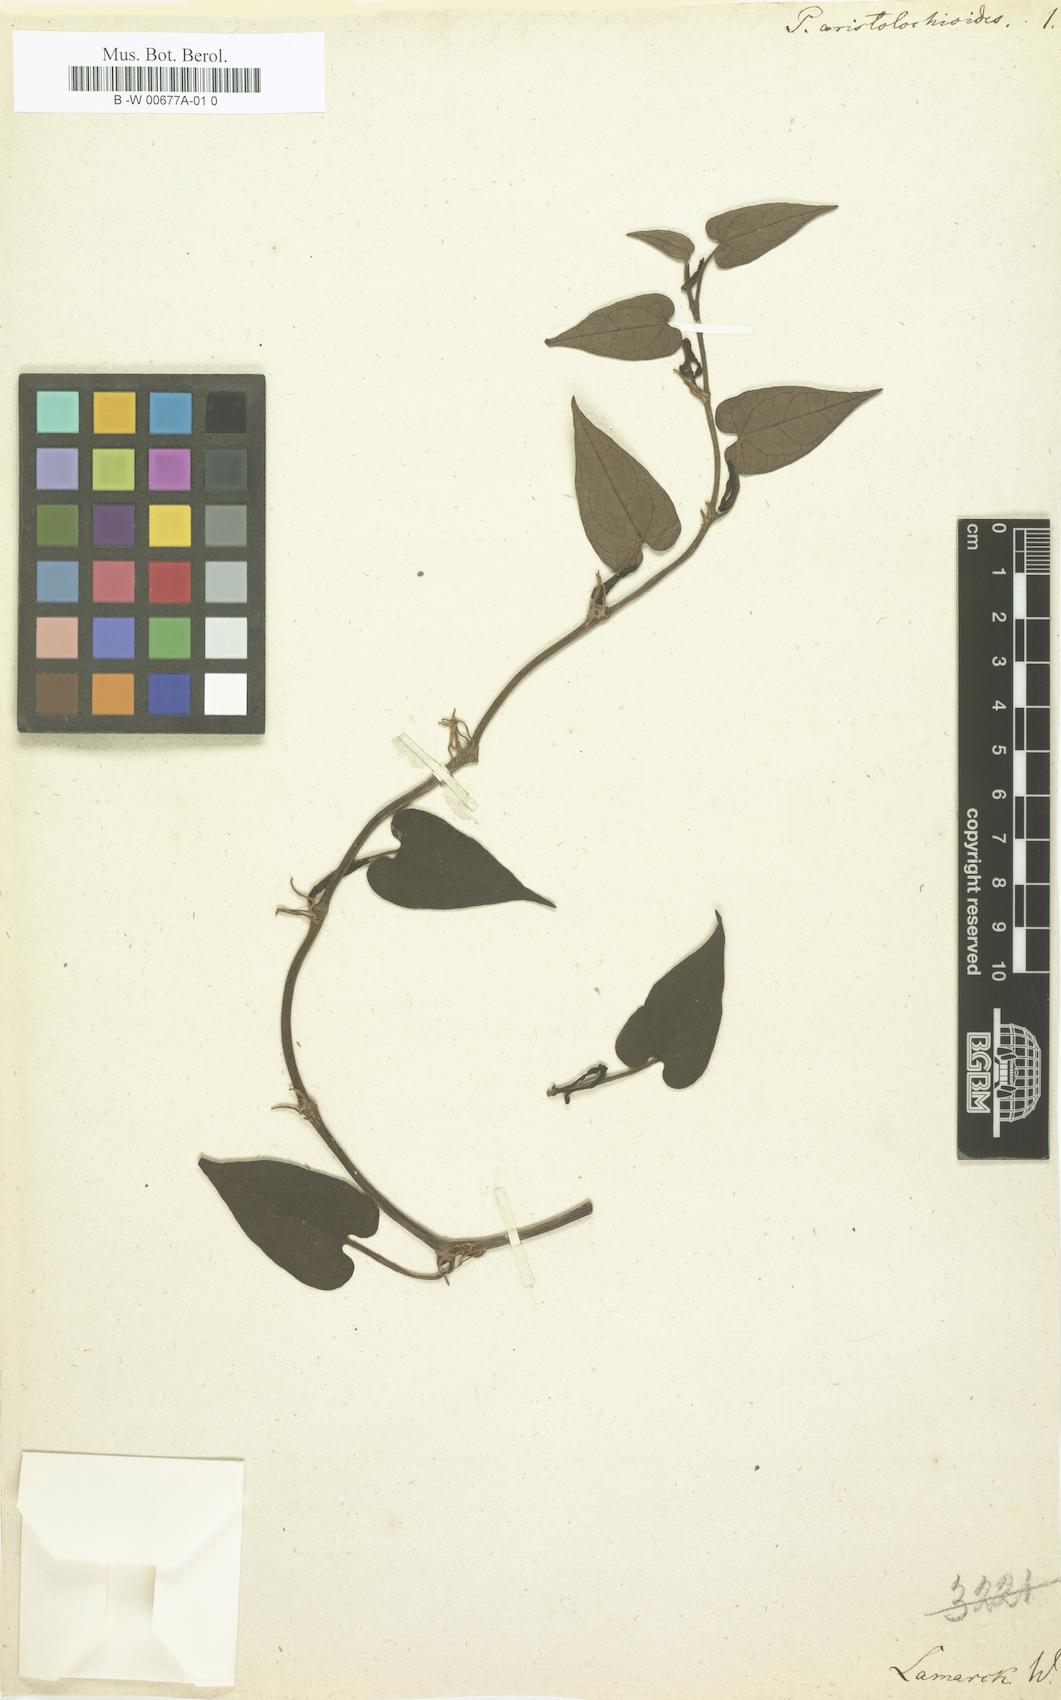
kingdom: Plantae
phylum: Tracheophyta
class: Magnoliopsida
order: Piperales
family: Piperaceae
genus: Piper
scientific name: Piper borbonense
